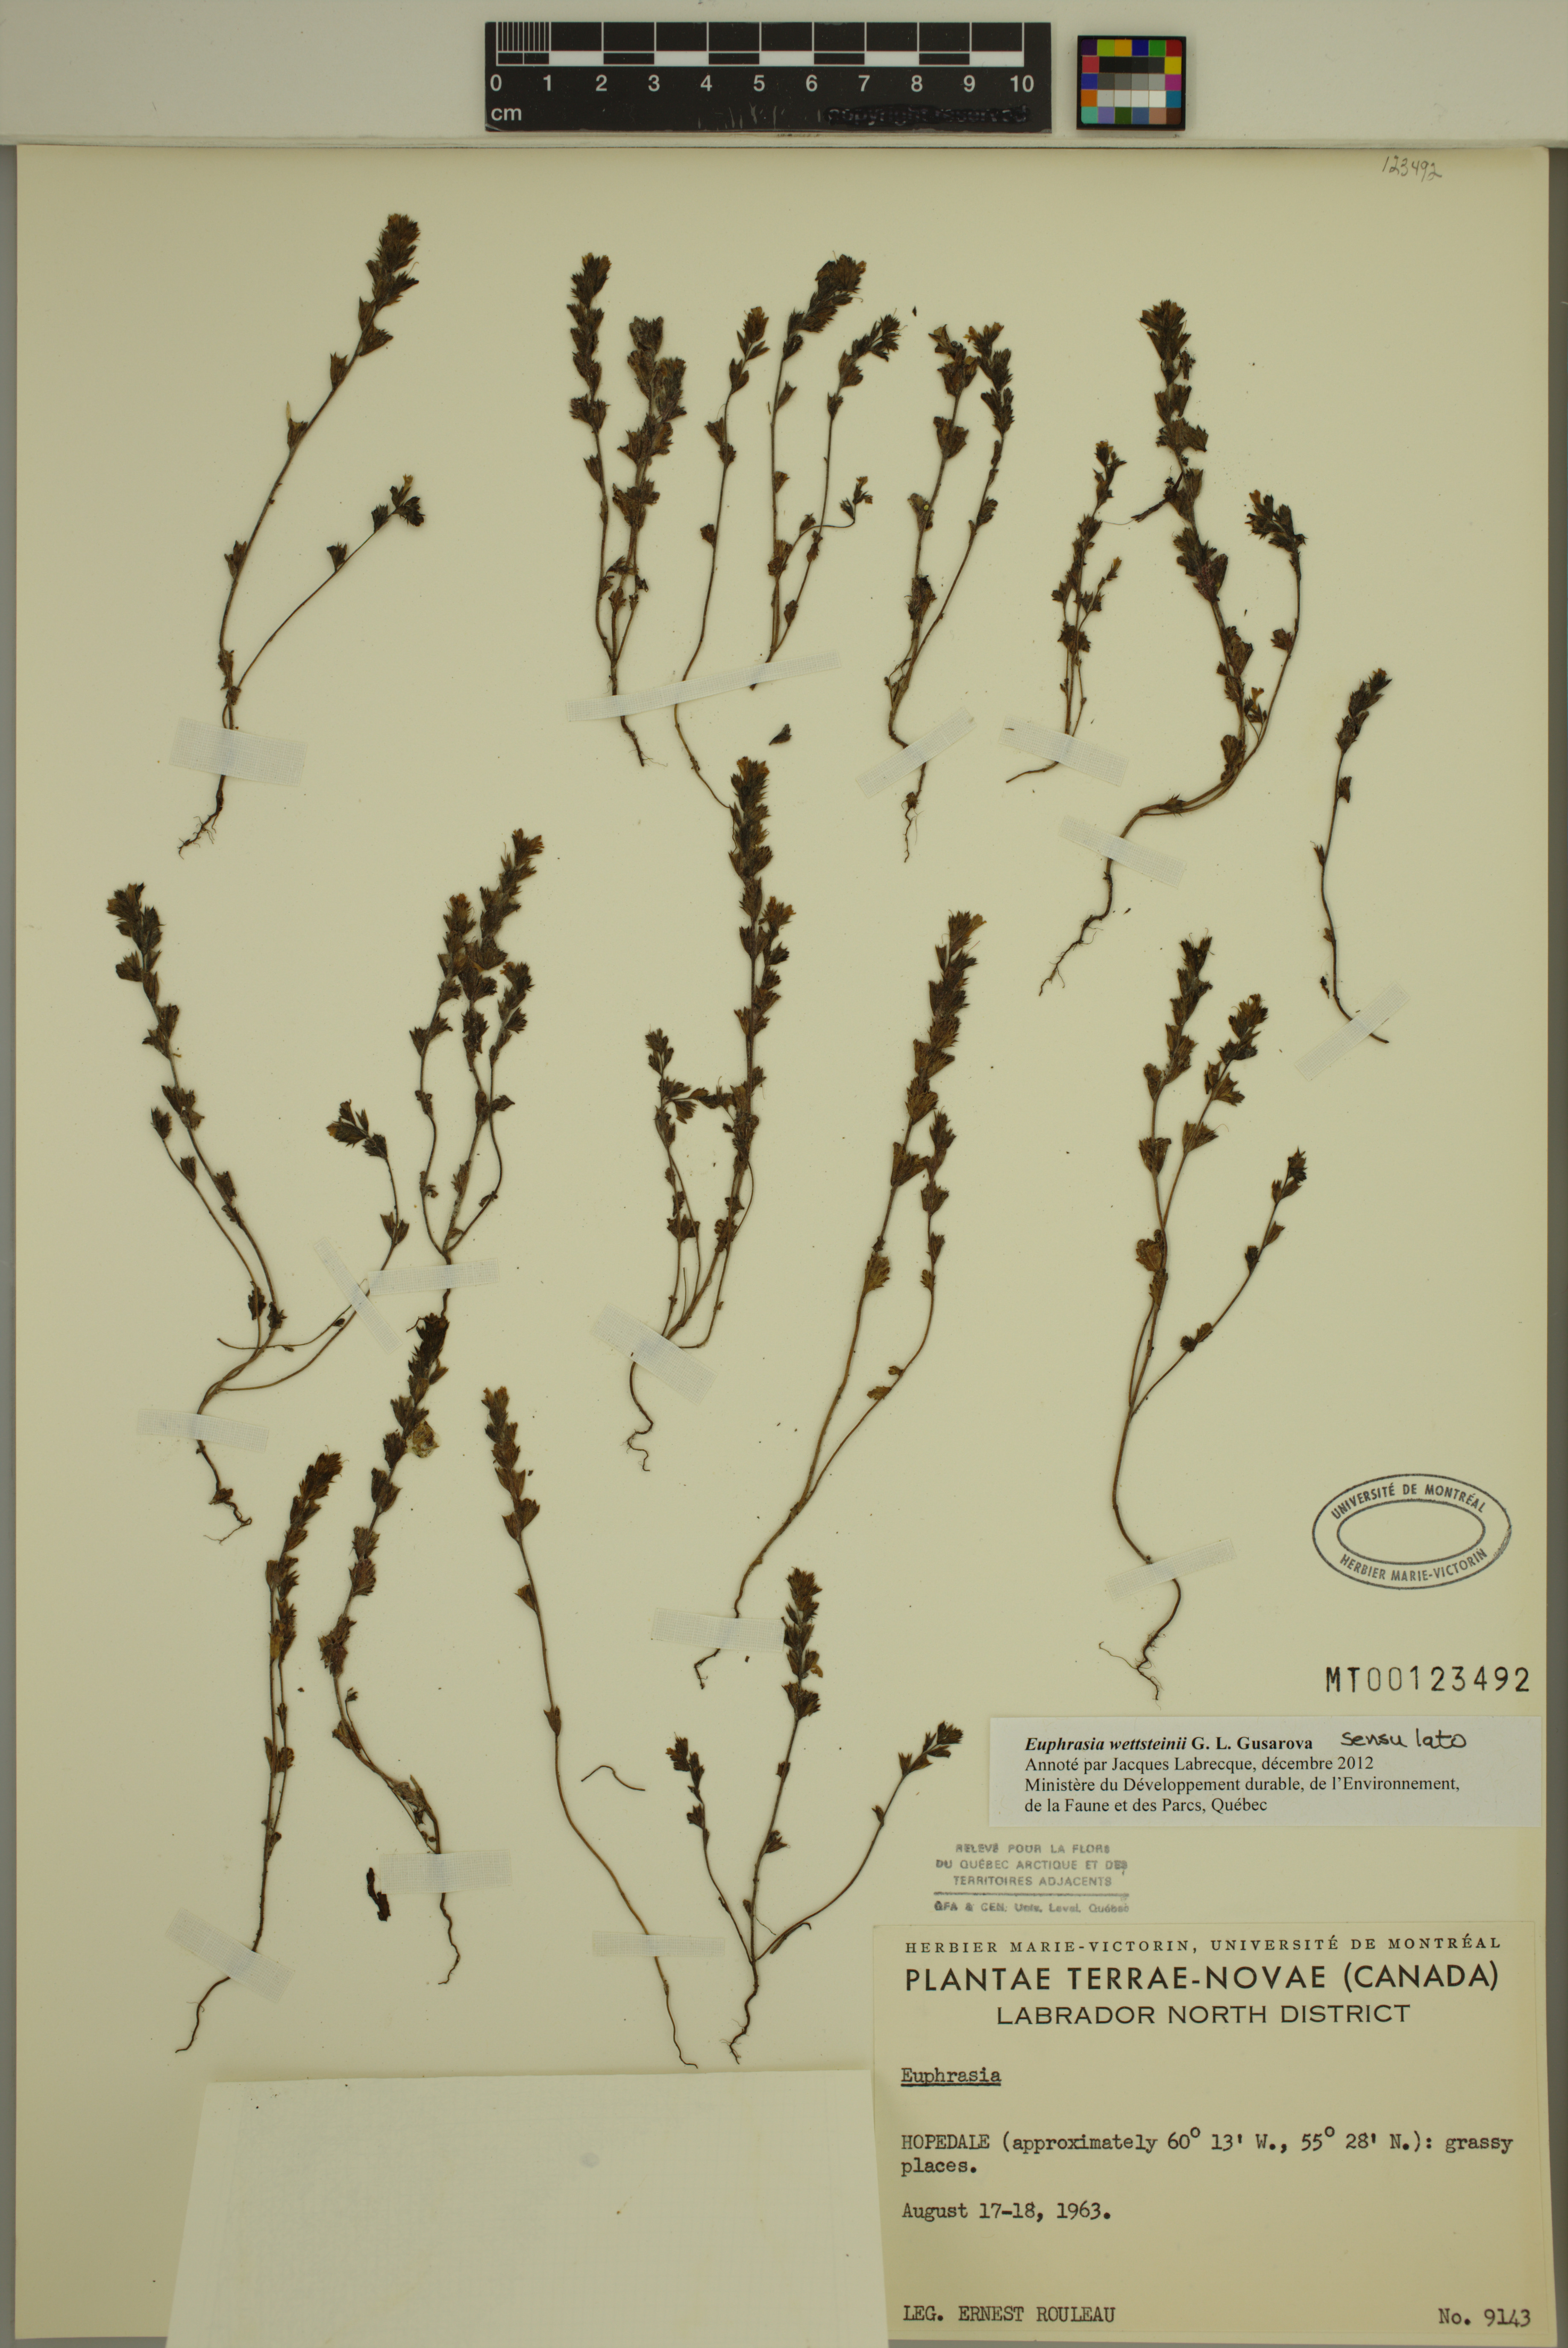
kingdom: Plantae
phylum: Tracheophyta
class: Magnoliopsida
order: Lamiales
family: Orobanchaceae
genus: Euphrasia
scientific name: Euphrasia wettsteinii
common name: Wettstein's eyebright
